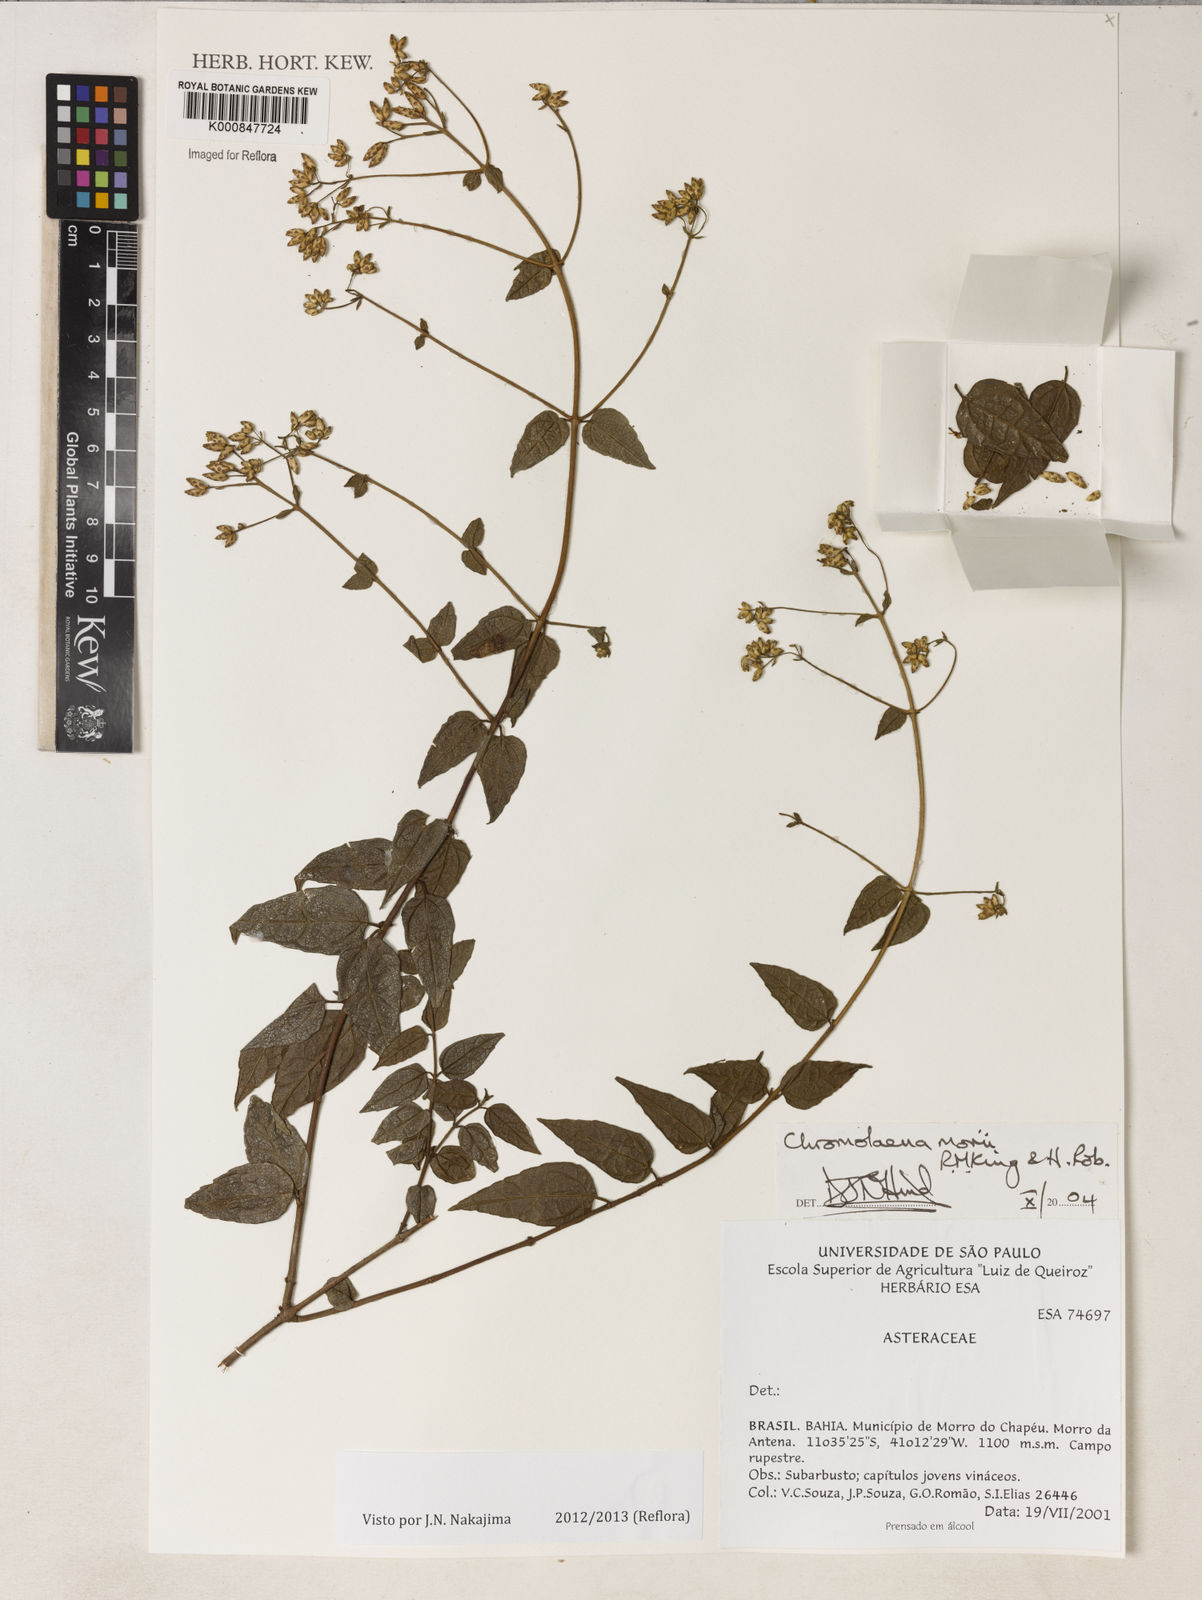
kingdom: Plantae
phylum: Tracheophyta
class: Magnoliopsida
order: Asterales
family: Asteraceae
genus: Chromolaena
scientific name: Chromolaena morii
